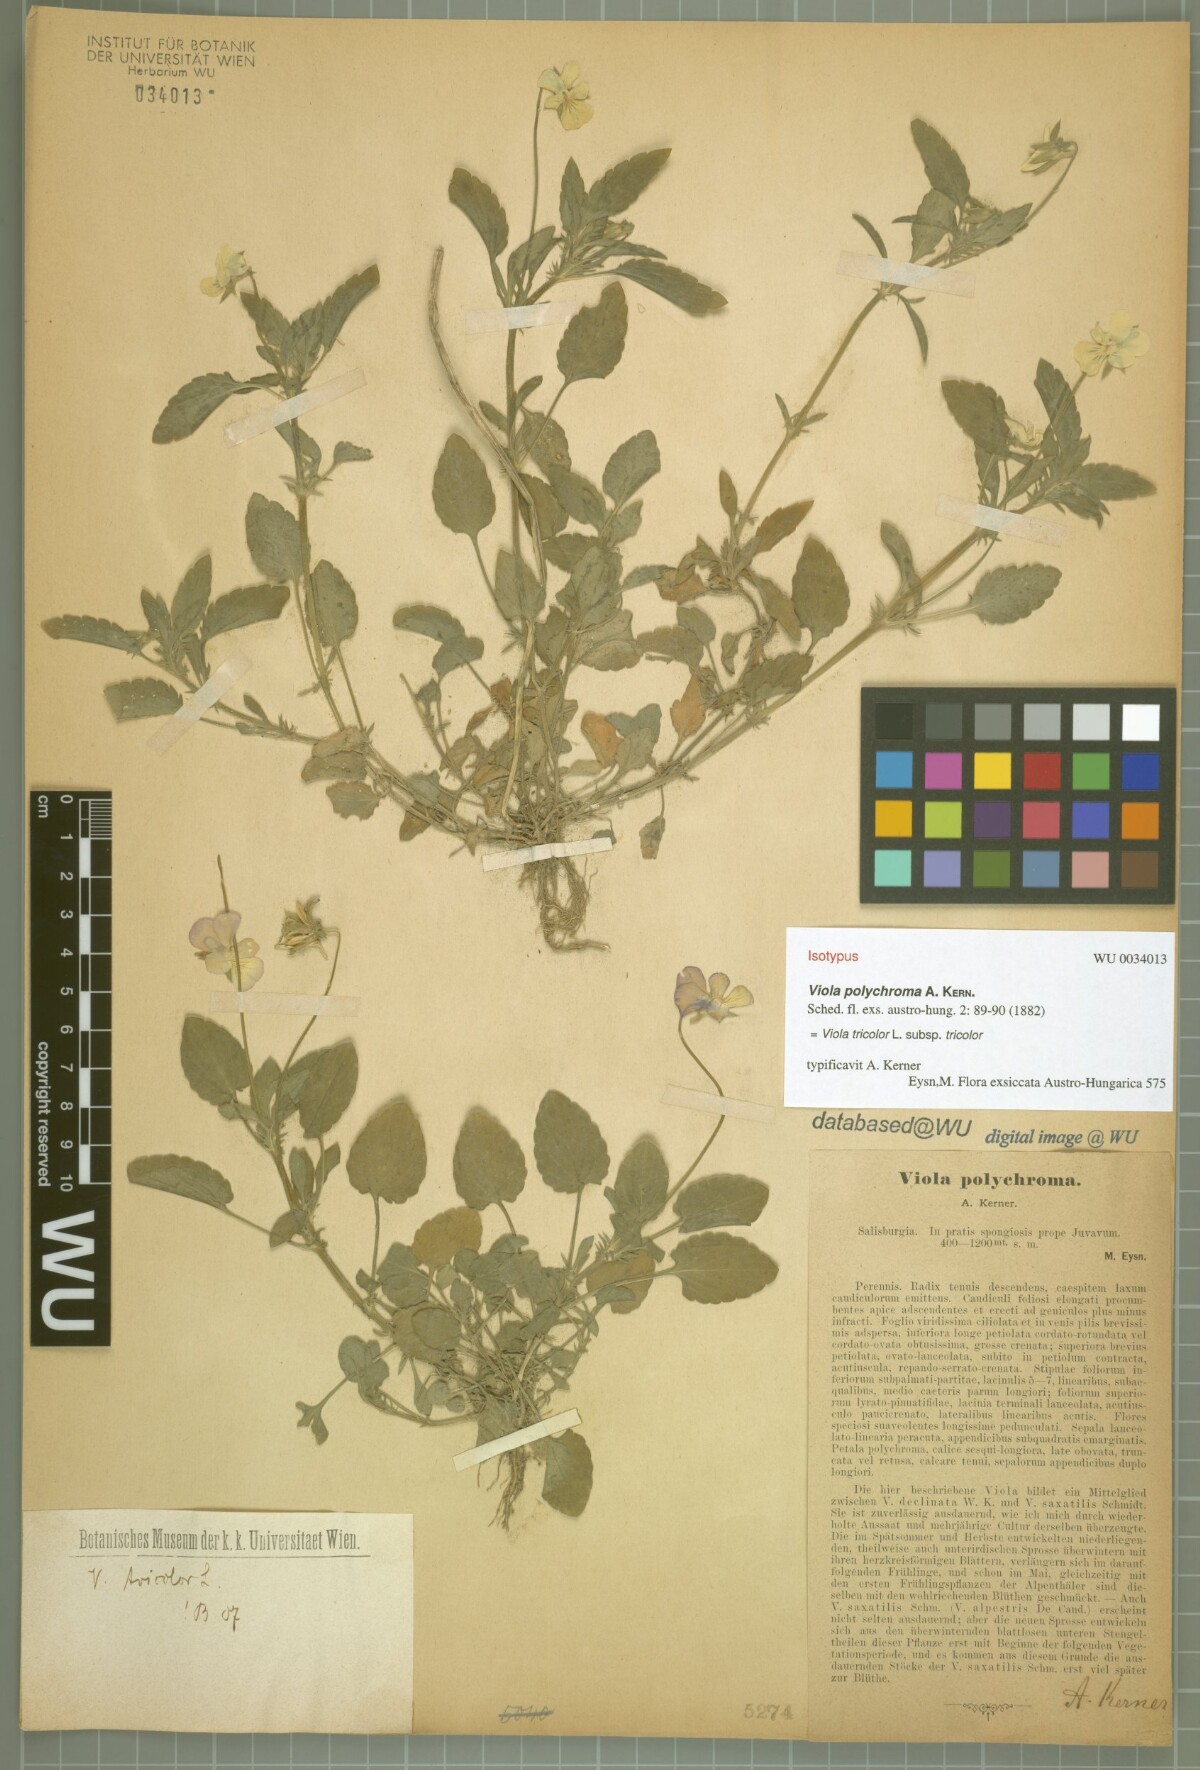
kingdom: Plantae
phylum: Tracheophyta
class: Magnoliopsida
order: Malpighiales
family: Violaceae
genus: Viola
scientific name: Viola tricolor
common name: Pansy
